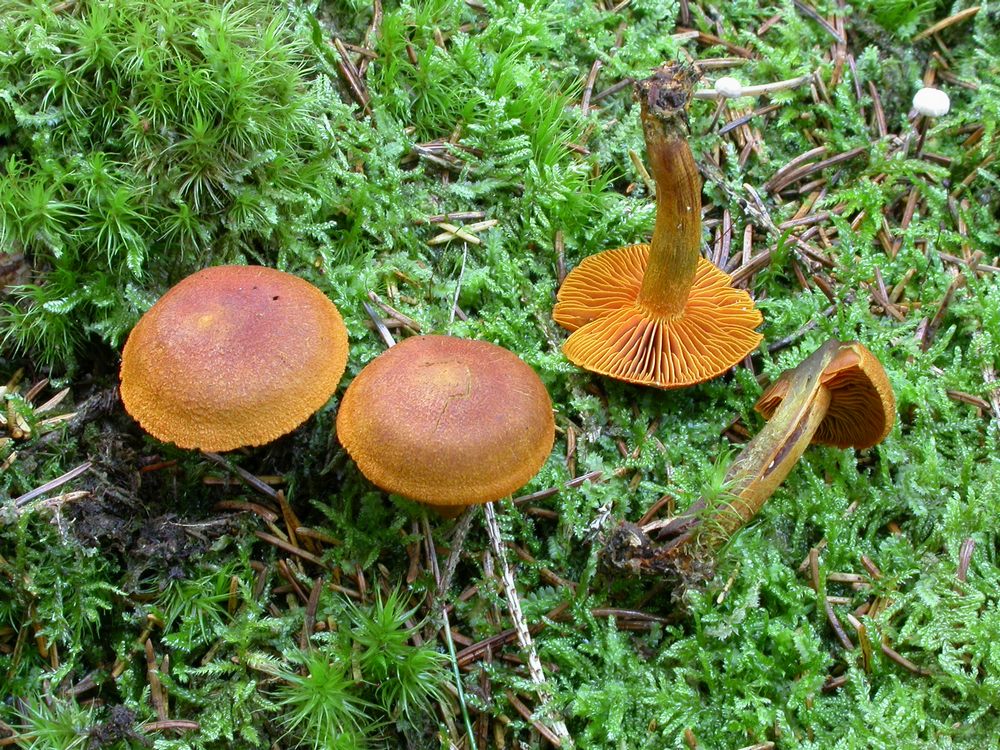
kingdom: Fungi
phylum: Basidiomycota
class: Agaricomycetes
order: Agaricales
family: Cortinariaceae
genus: Cortinarius
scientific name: Cortinarius malicorius
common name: grønkødet slørhat
